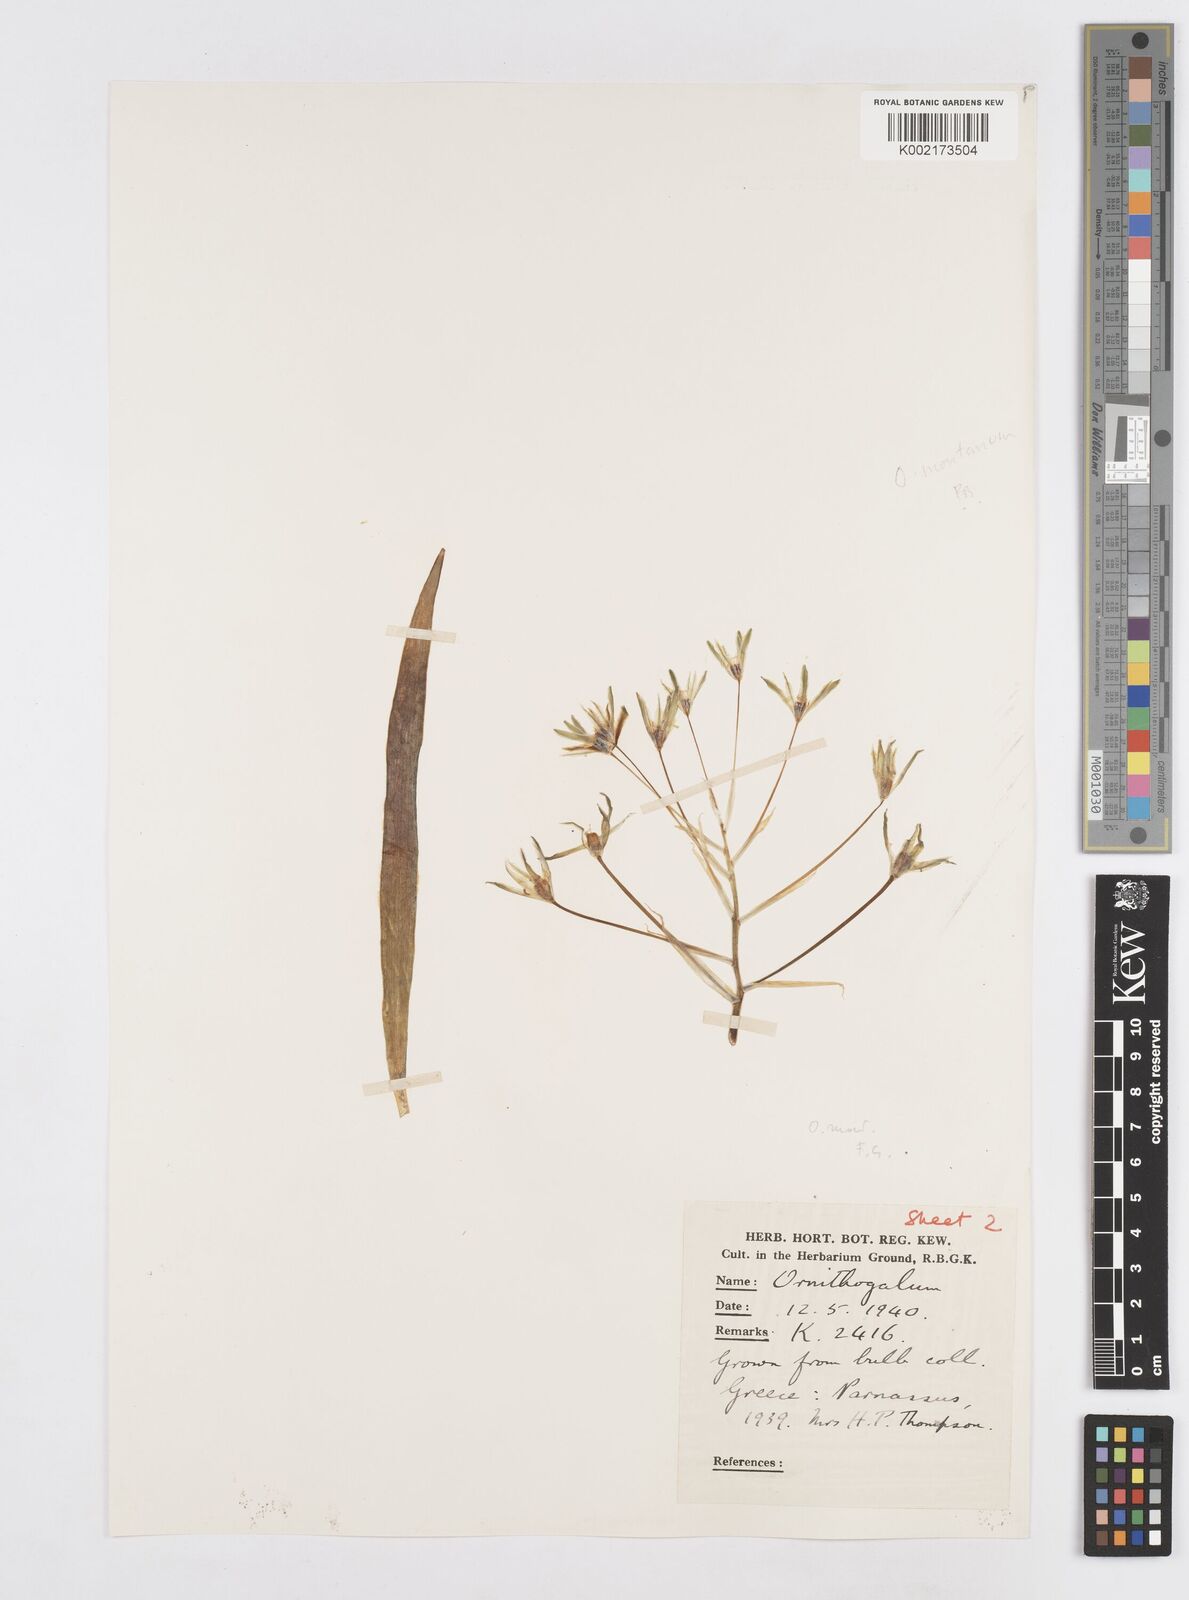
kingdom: Plantae
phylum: Tracheophyta
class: Liliopsida
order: Asparagales
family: Asparagaceae
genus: Ornithogalum
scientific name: Ornithogalum montanum
